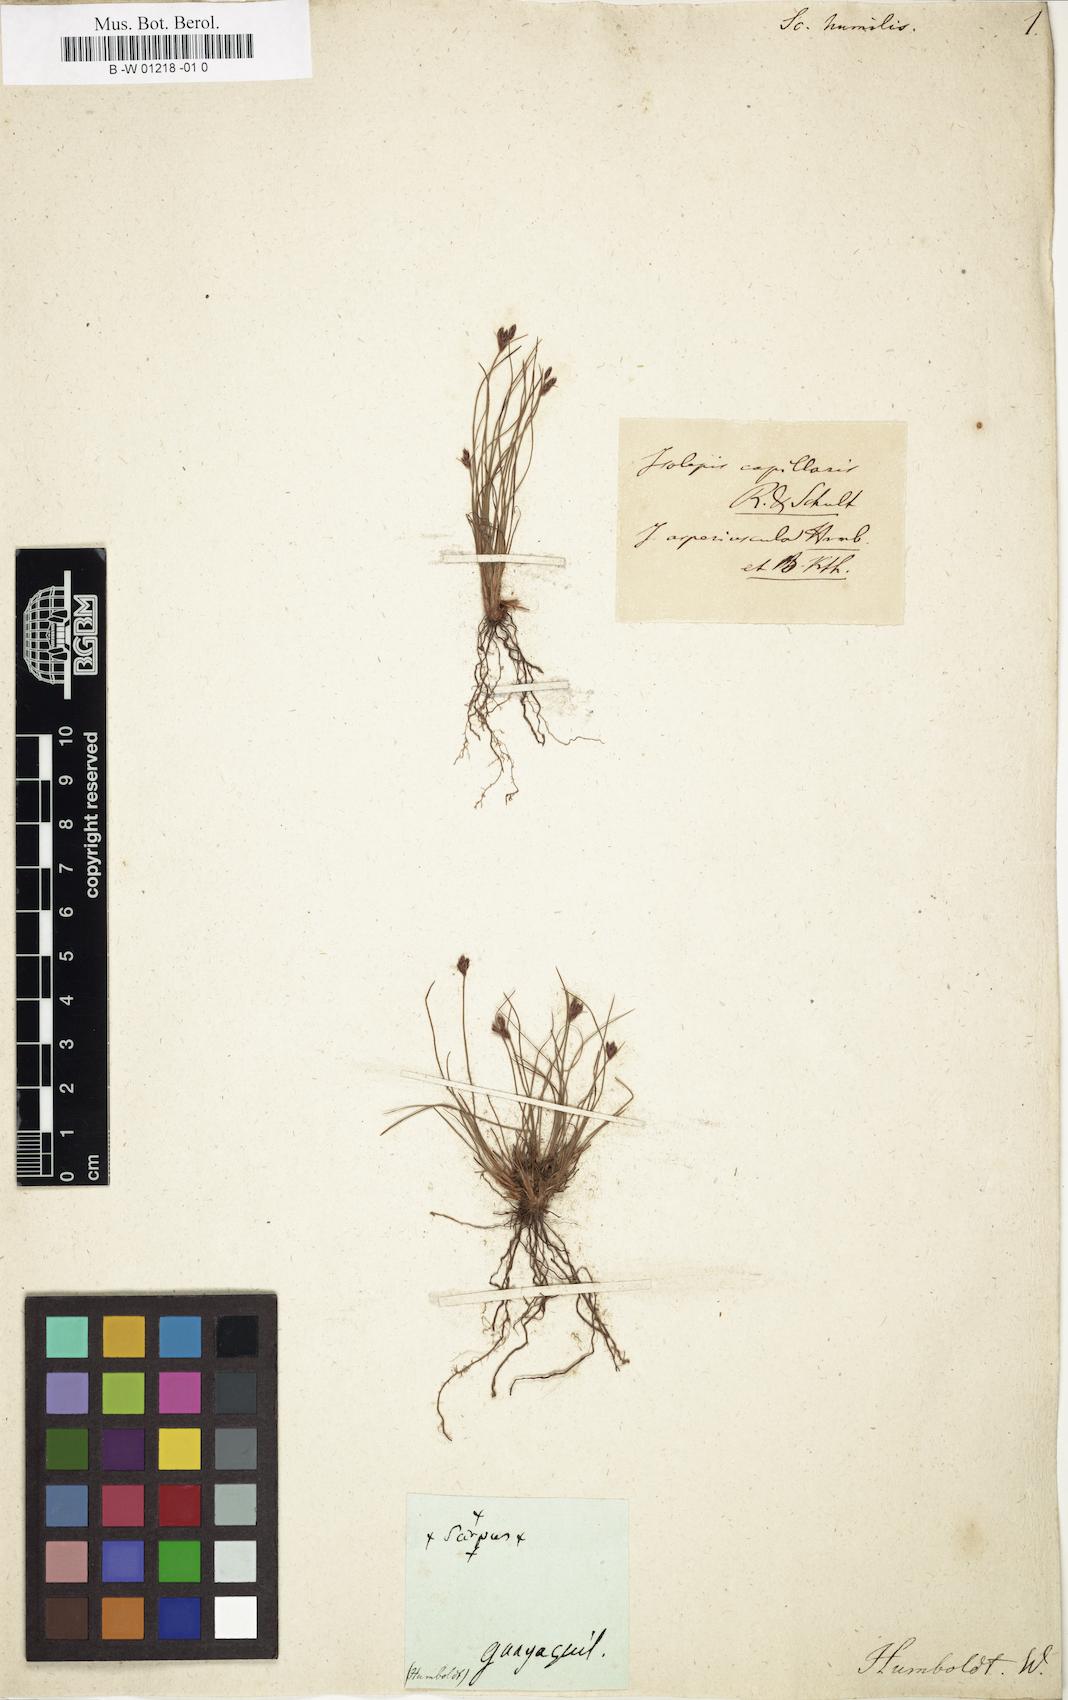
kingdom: Plantae
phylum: Tracheophyta
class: Liliopsida
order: Poales
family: Cyperaceae
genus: Bulbostylis
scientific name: Bulbostylis scabra
